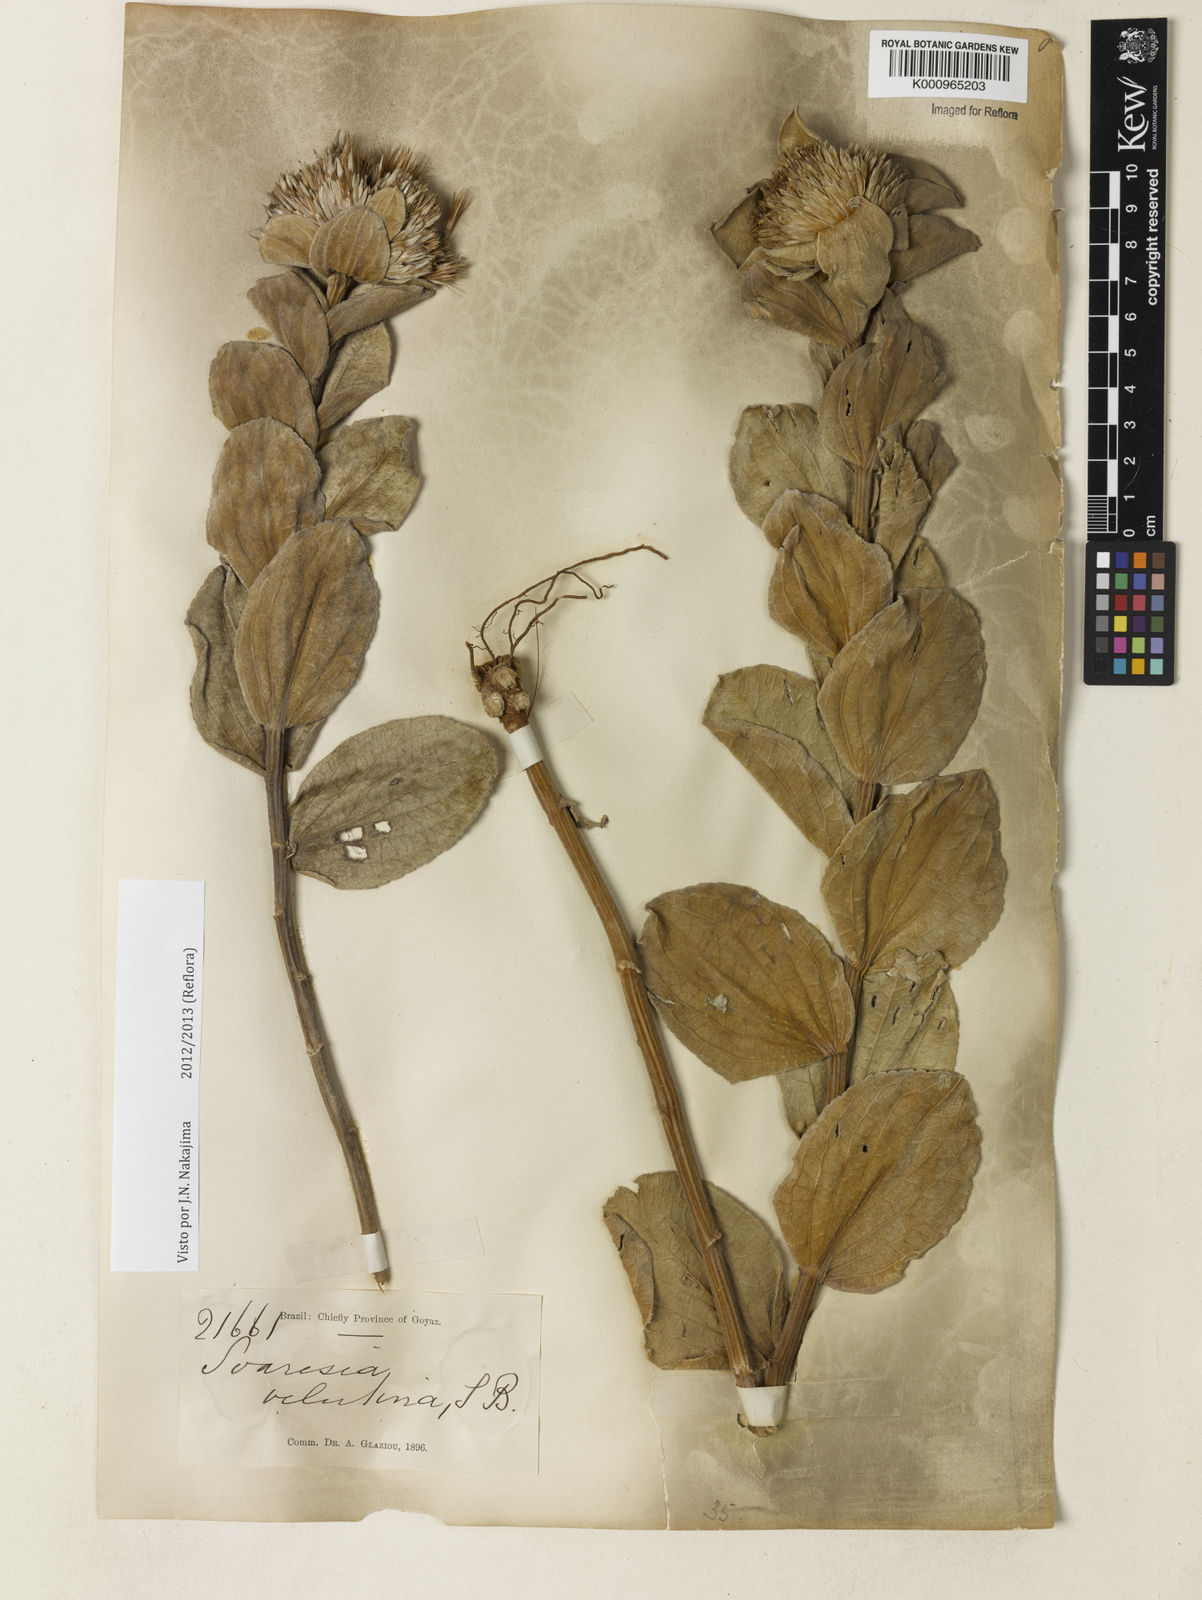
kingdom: Plantae
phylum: Tracheophyta
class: Magnoliopsida
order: Asterales
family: Asteraceae
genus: Soaresia
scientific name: Soaresia velutina
